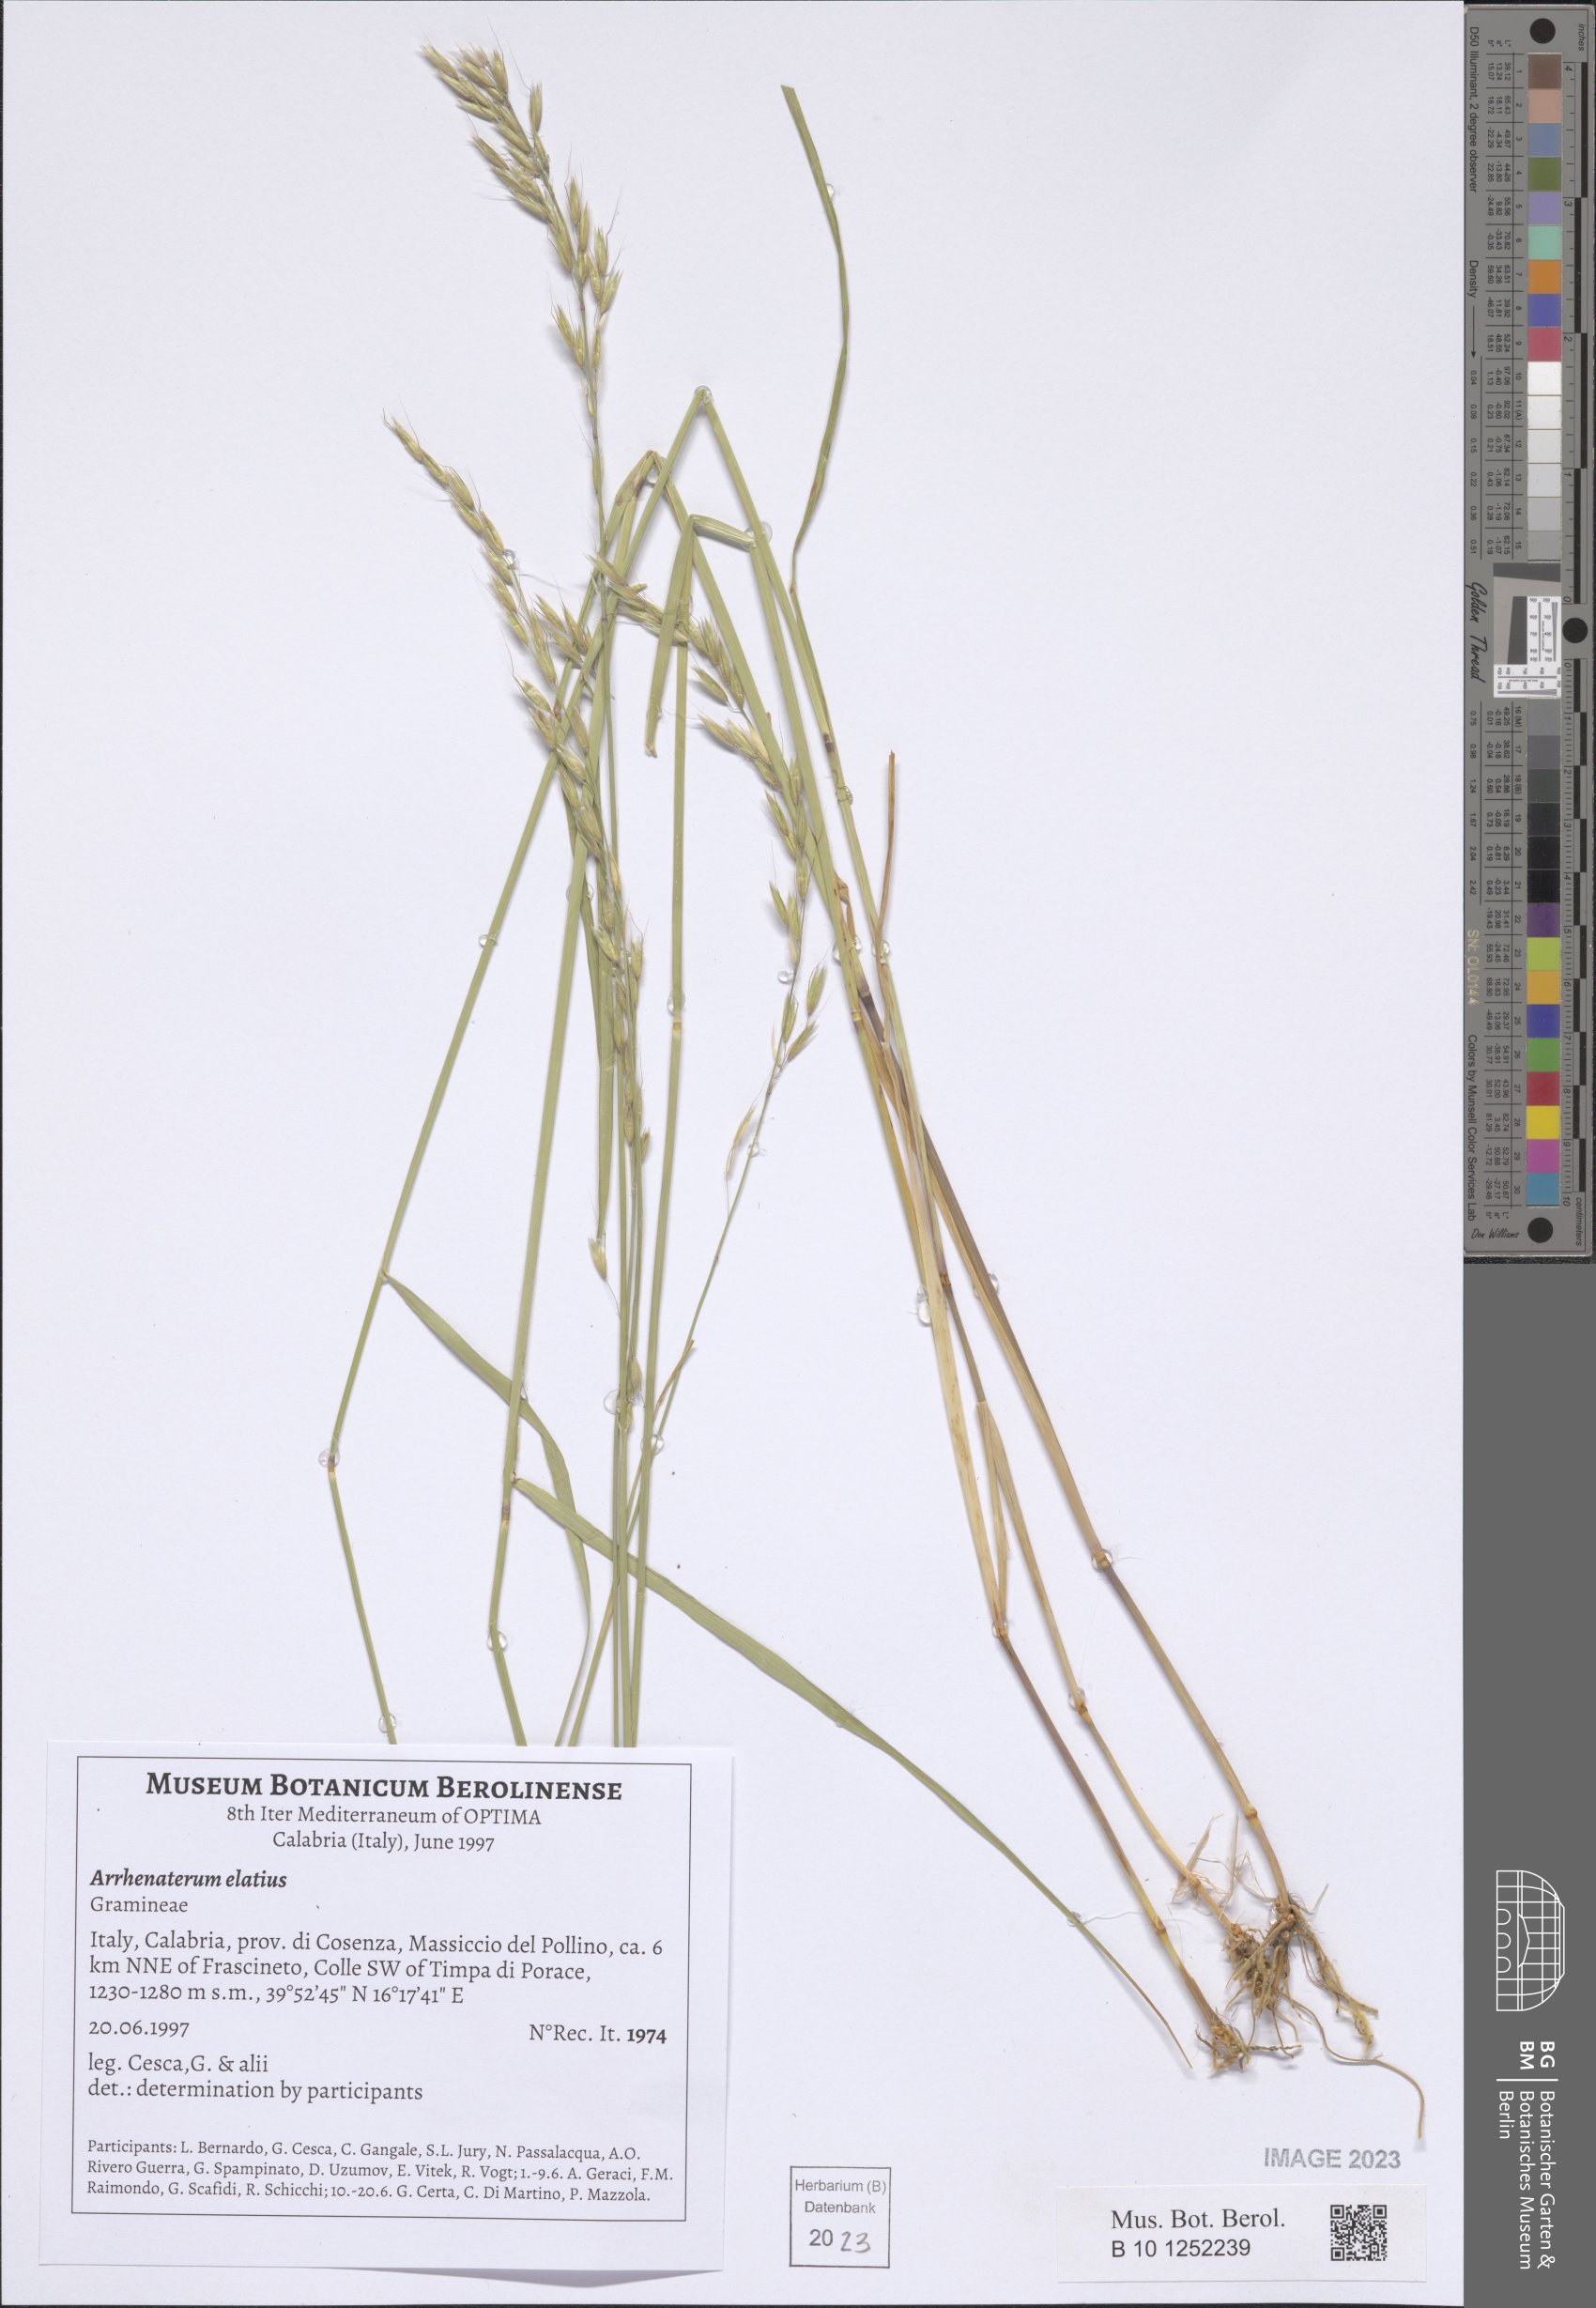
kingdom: Plantae
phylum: Tracheophyta
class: Liliopsida
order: Poales
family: Poaceae
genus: Arrhenatherum
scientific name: Arrhenatherum elatius
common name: Tall oatgrass
